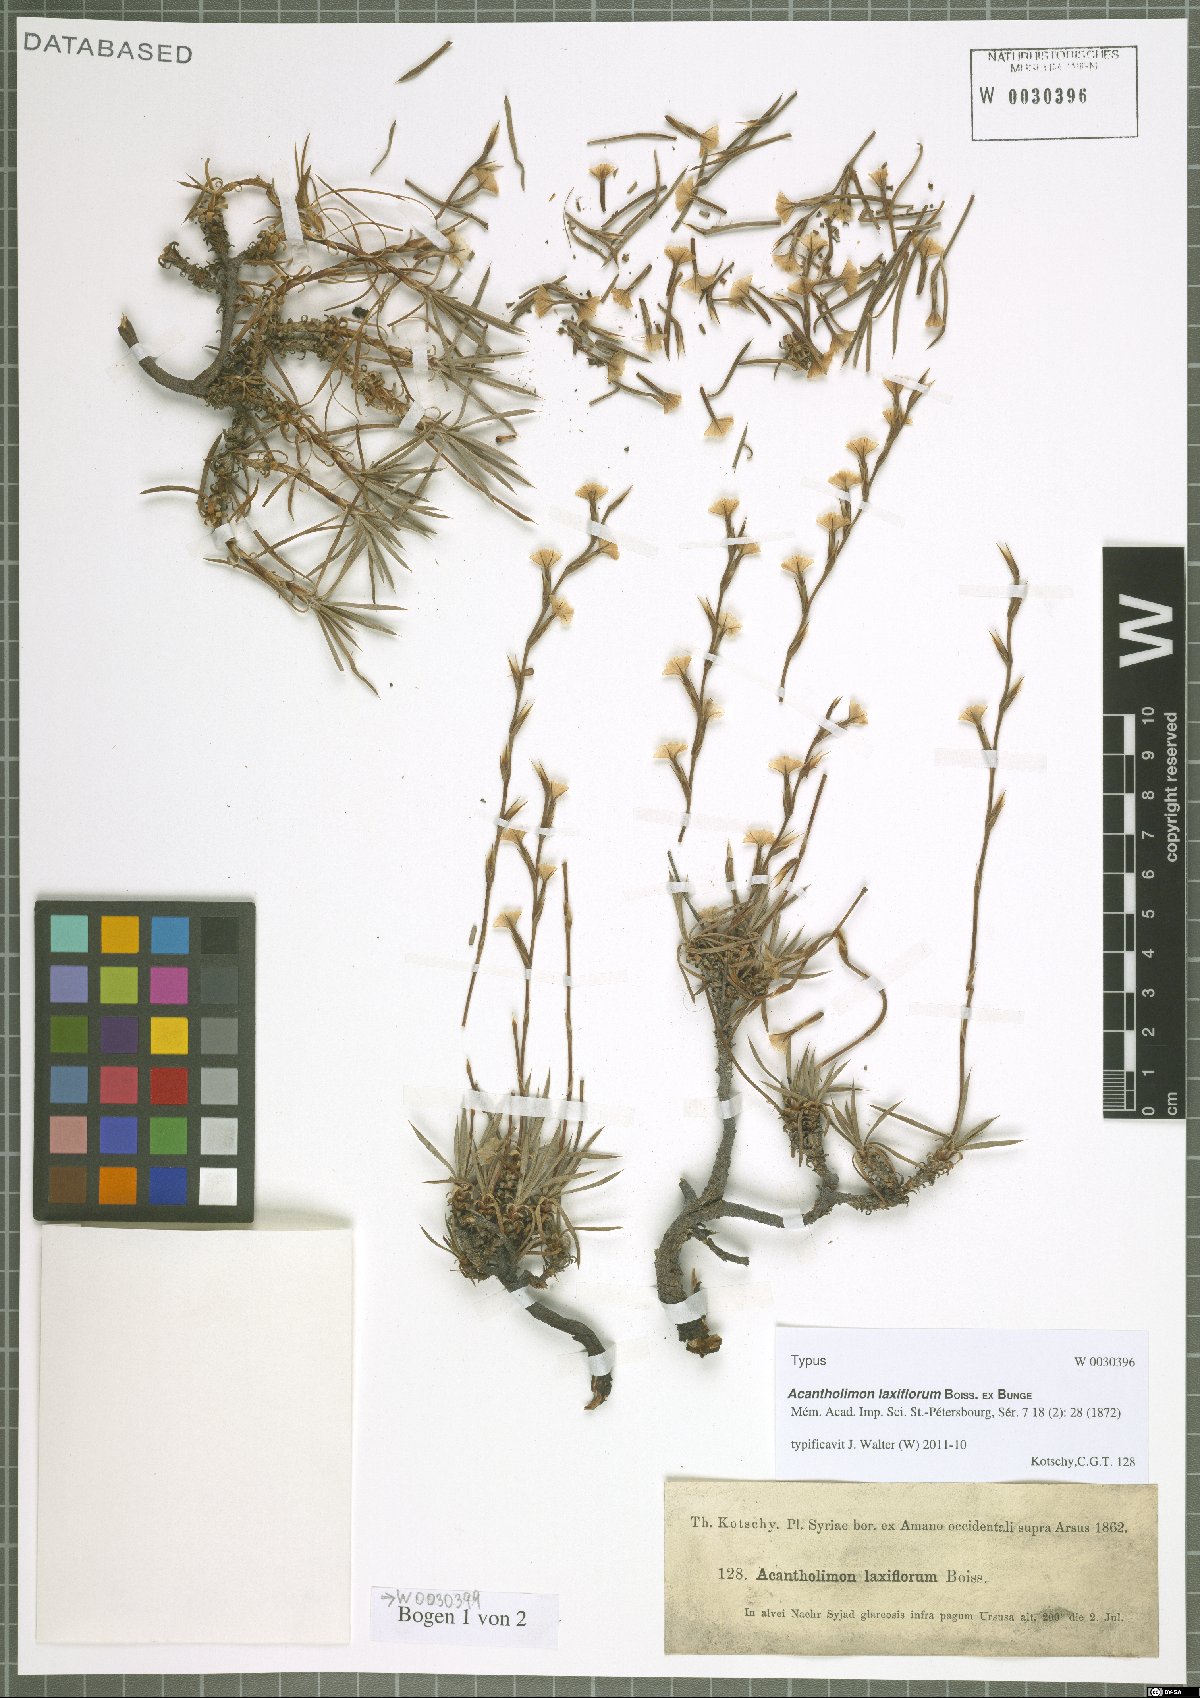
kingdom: Plantae
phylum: Tracheophyta
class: Magnoliopsida
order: Caryophyllales
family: Plumbaginaceae
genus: Acantholimon
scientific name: Acantholimon laxiflorum
